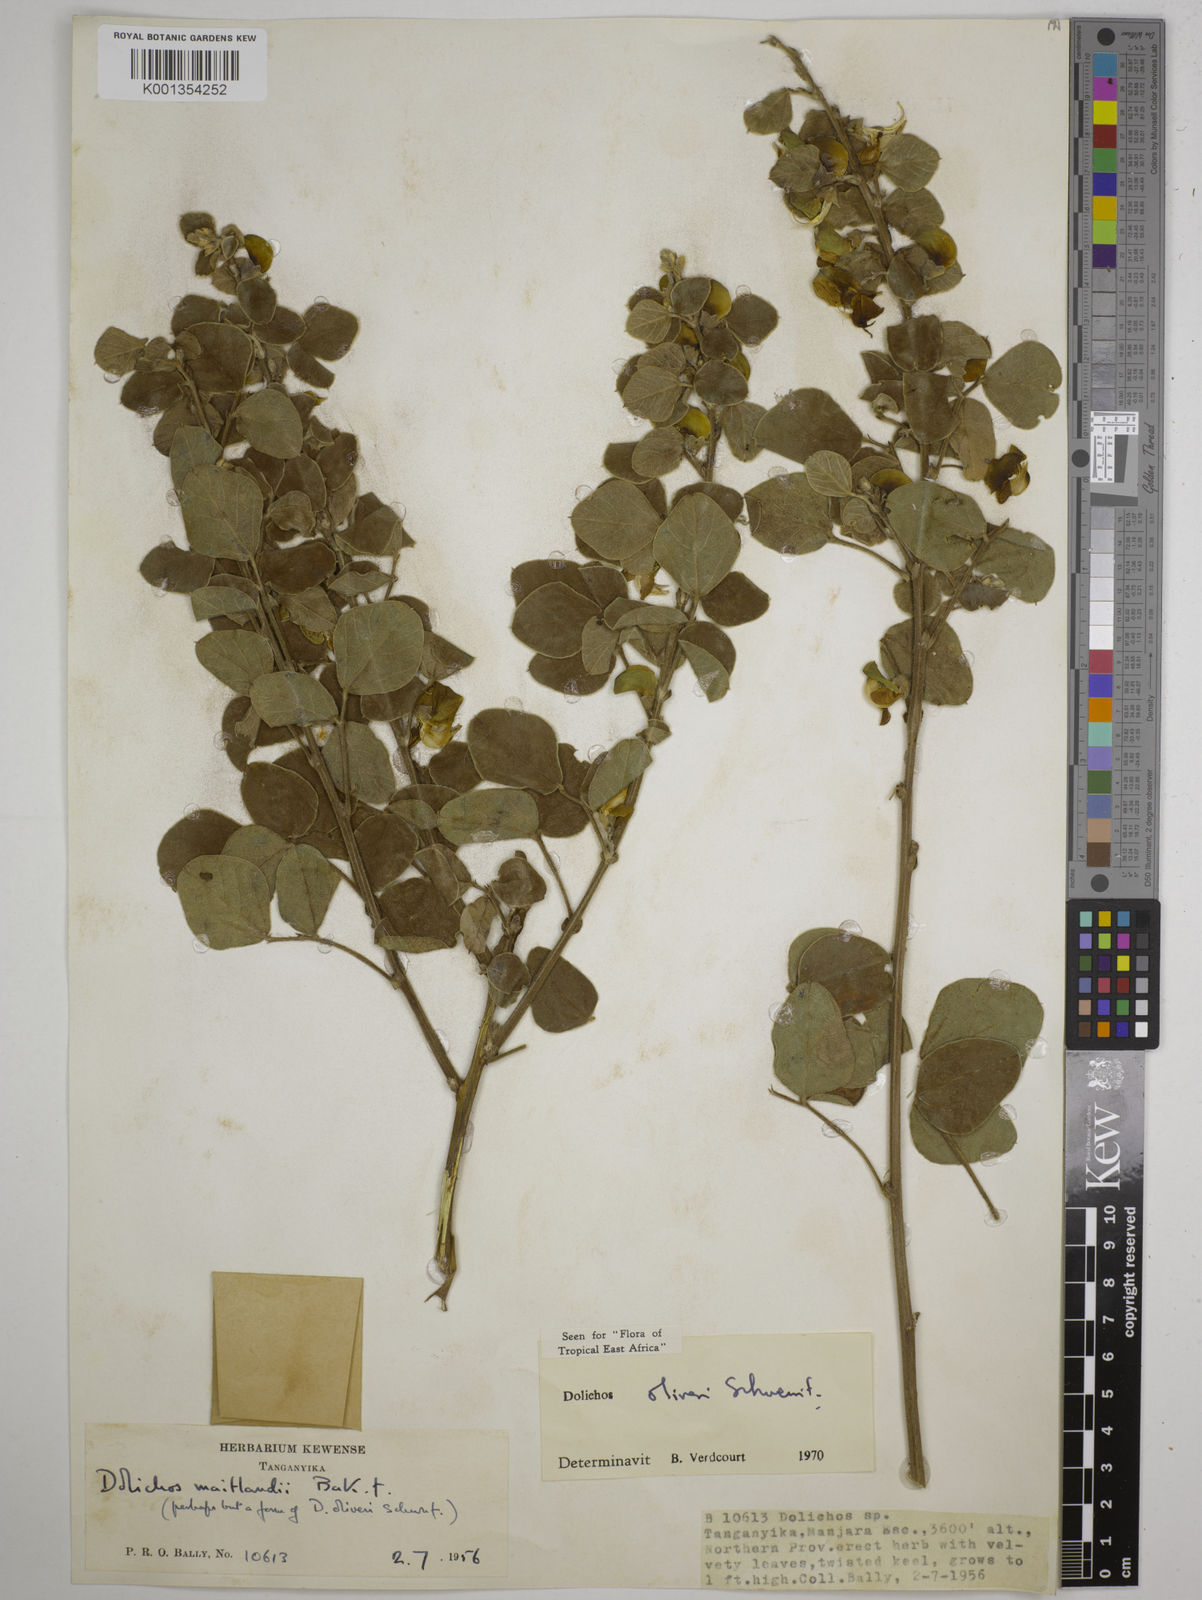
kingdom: Plantae
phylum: Tracheophyta
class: Magnoliopsida
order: Fabales
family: Fabaceae
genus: Dolichos
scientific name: Dolichos oliveri
